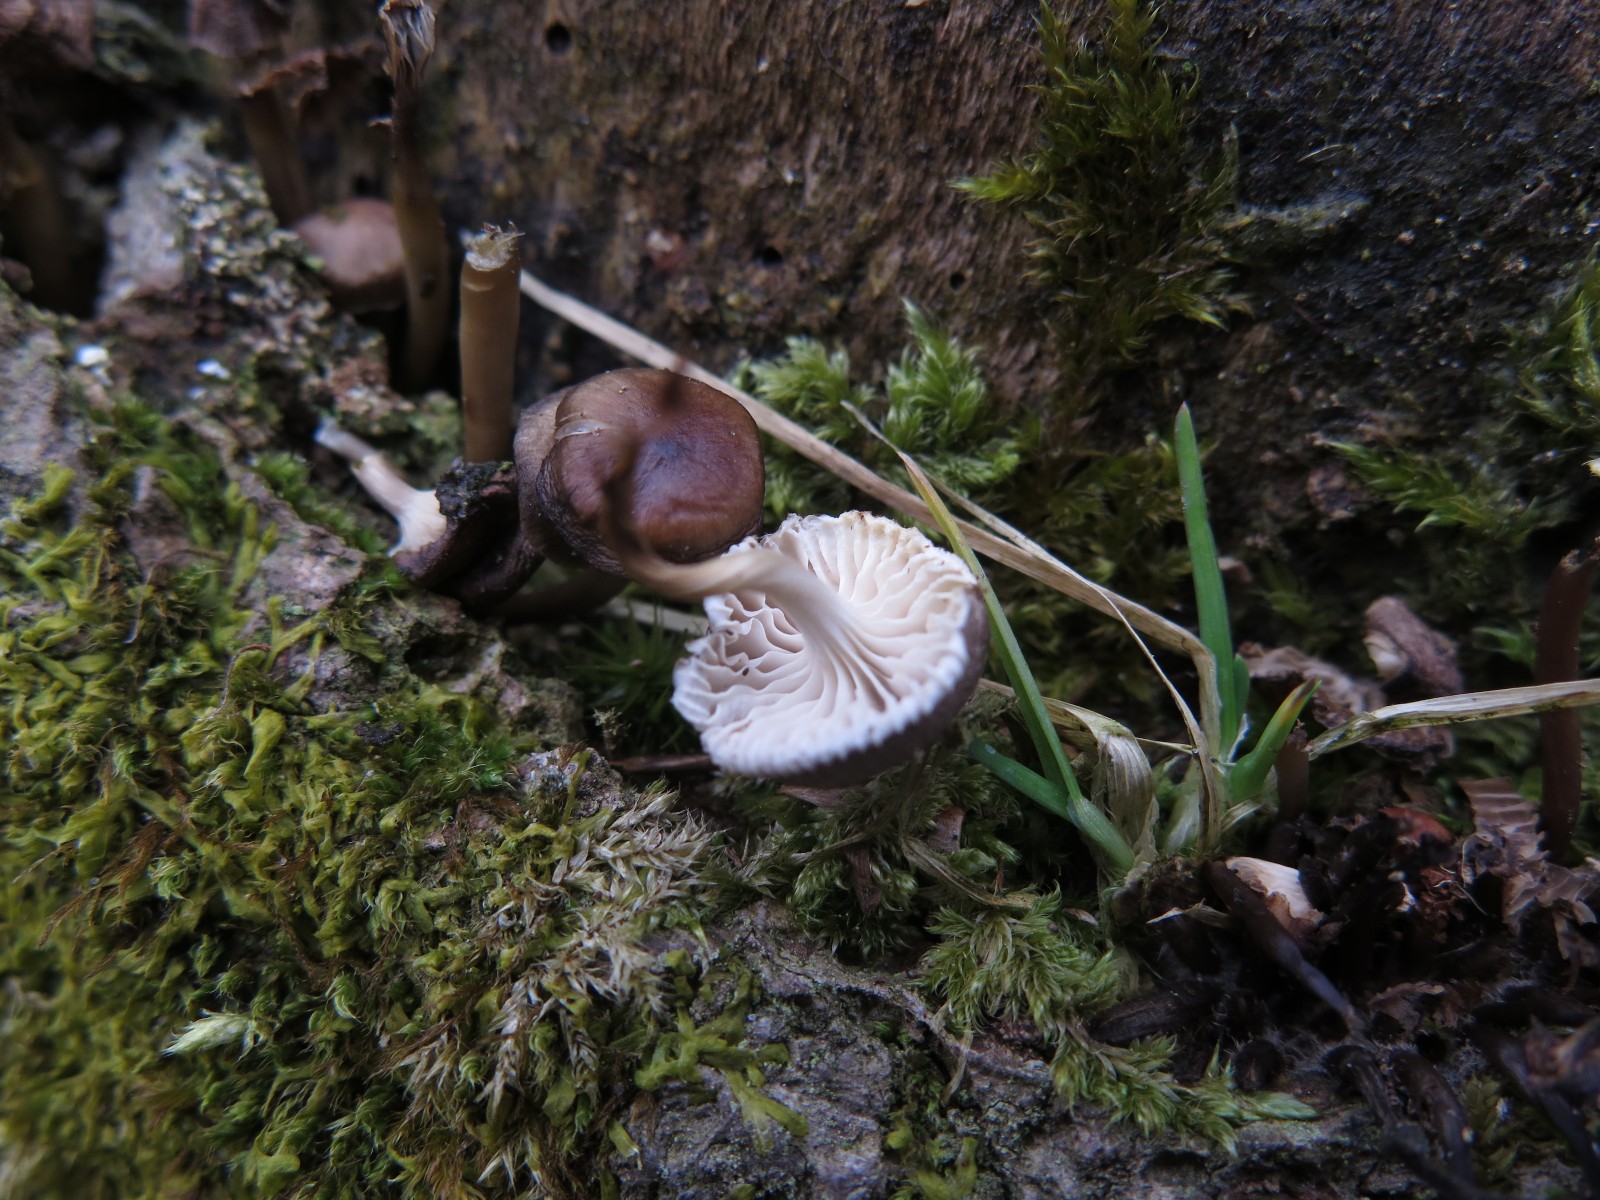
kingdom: Fungi
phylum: Basidiomycota
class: Agaricomycetes
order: Agaricales
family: Mycenaceae
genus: Mycena
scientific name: Mycena tintinnabulum
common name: vinter-huesvamp
